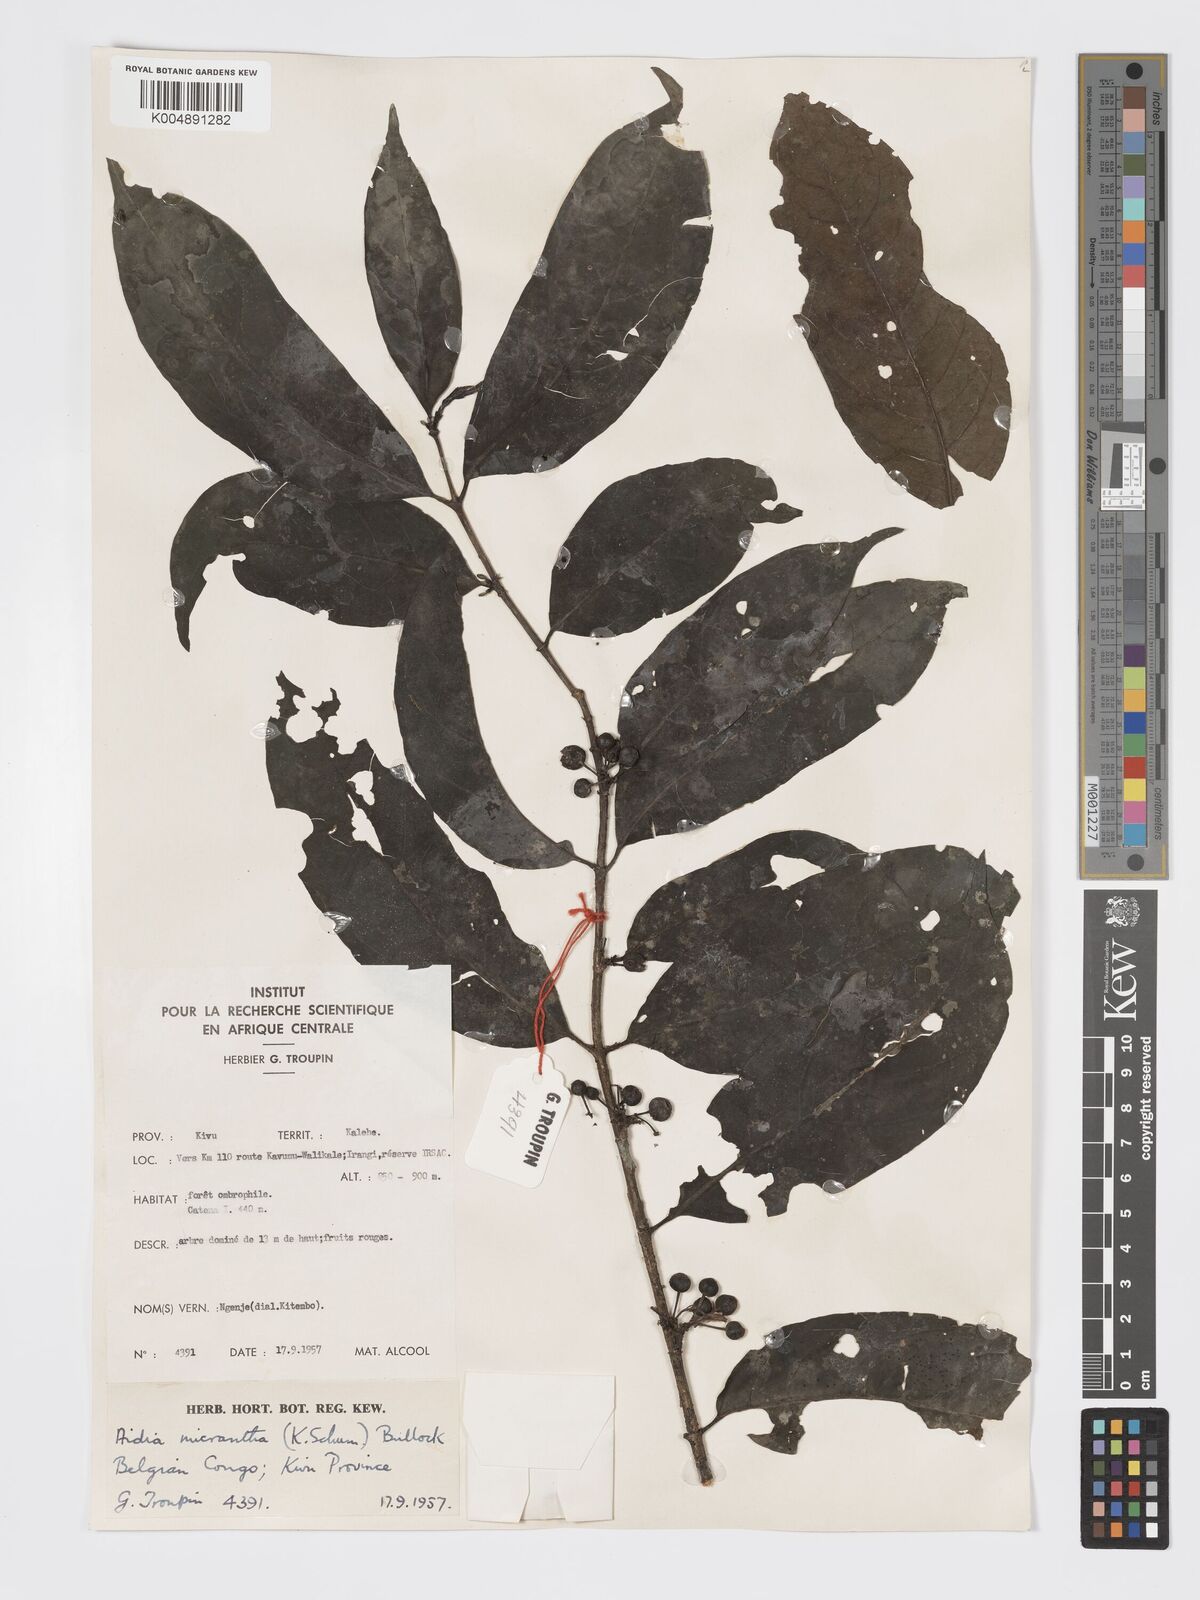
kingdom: Plantae
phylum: Tracheophyta
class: Magnoliopsida
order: Gentianales
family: Rubiaceae
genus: Aidia
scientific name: Aidia micrantha
